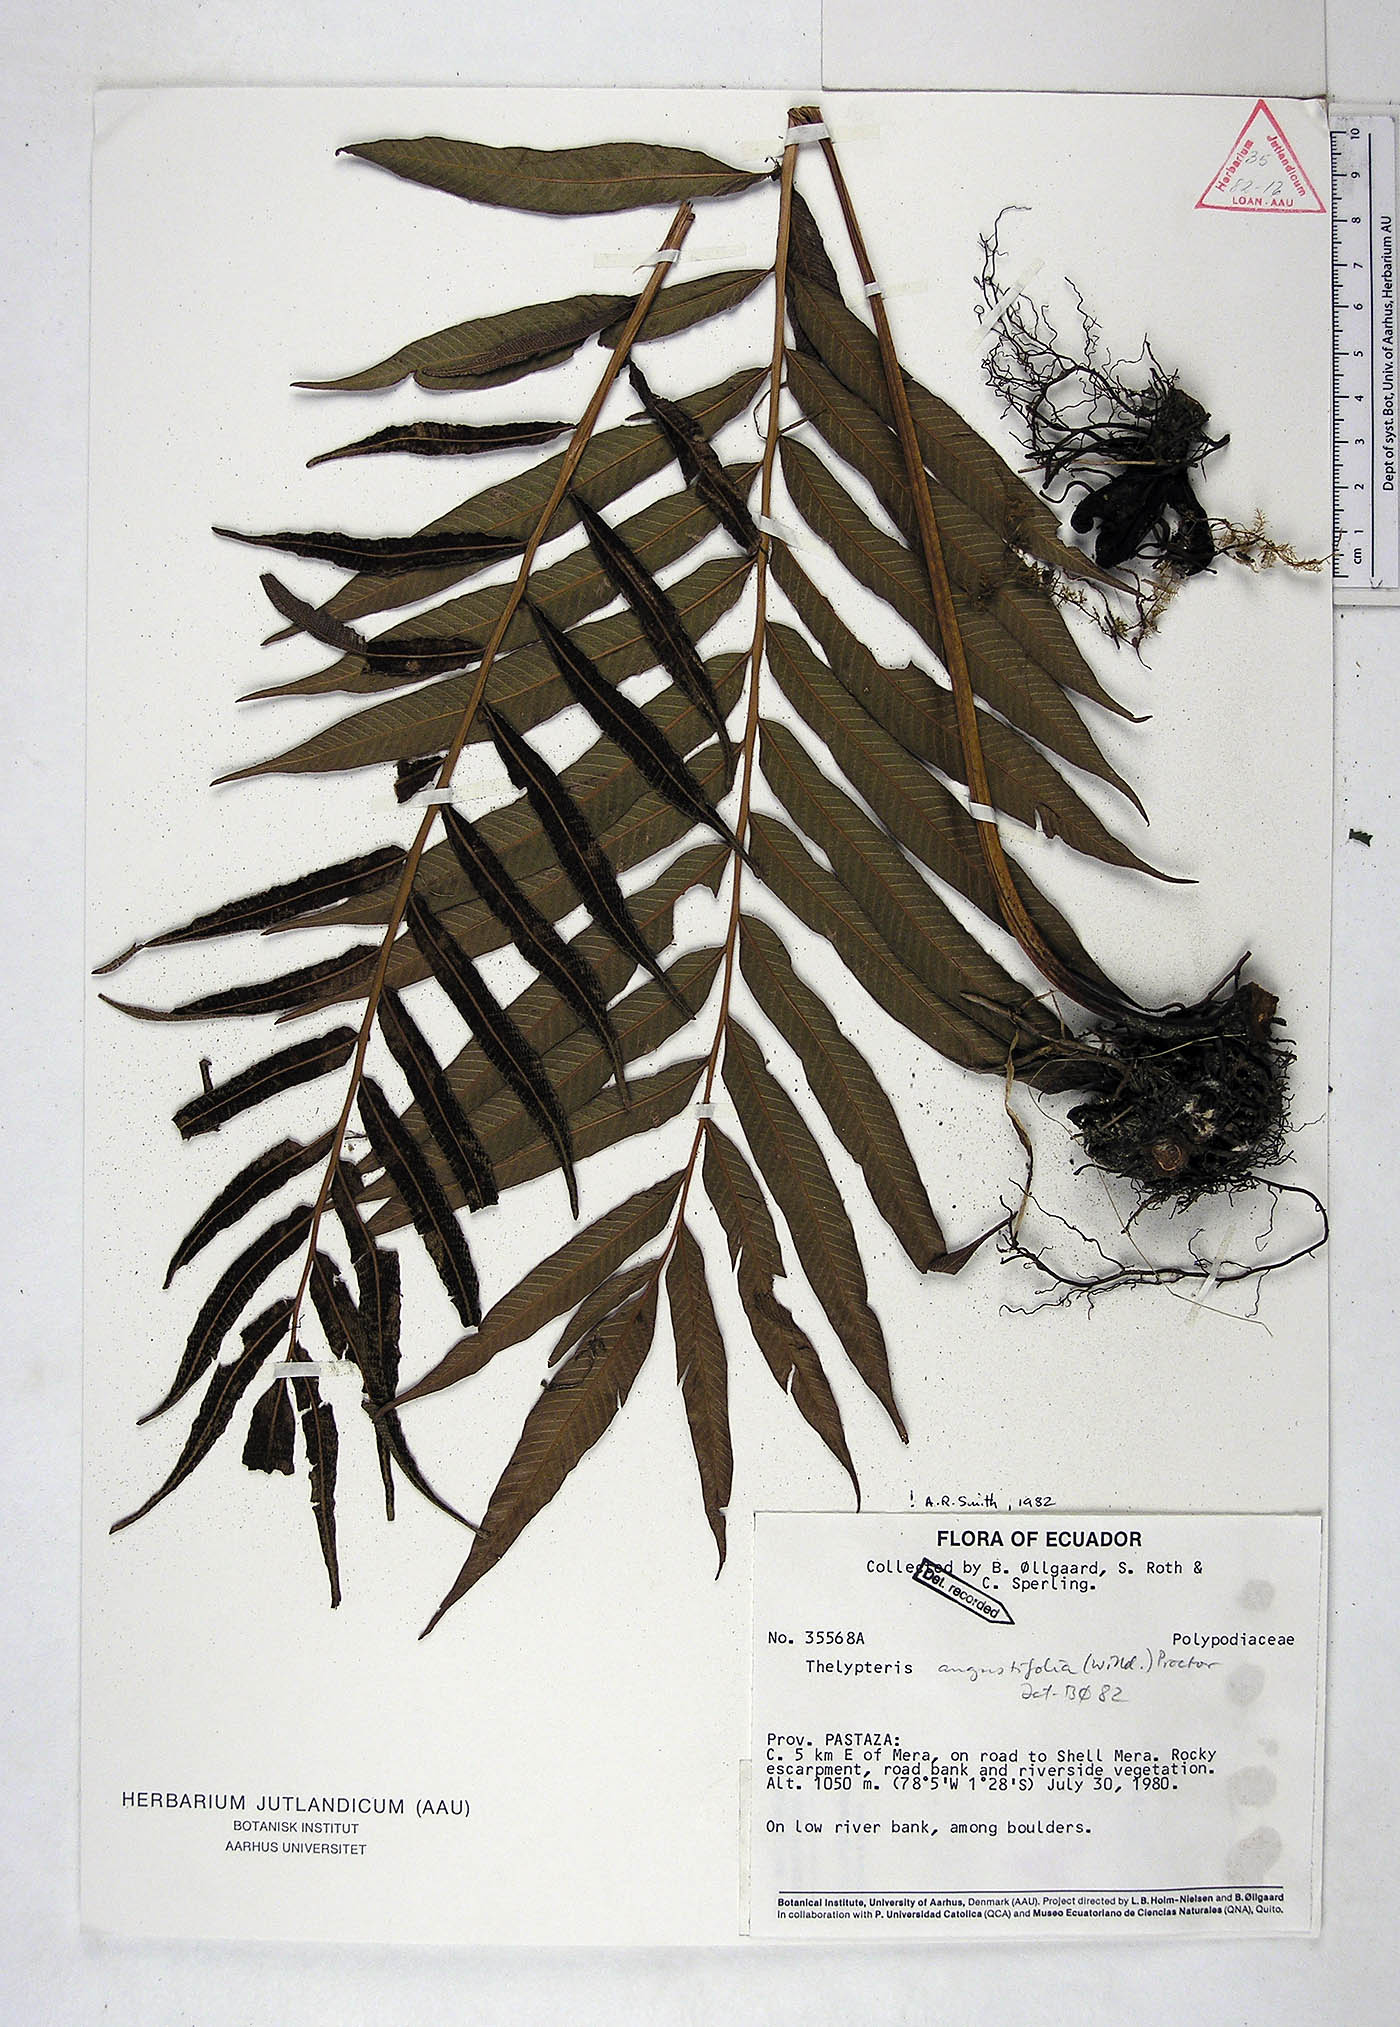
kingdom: Plantae
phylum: Tracheophyta
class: Polypodiopsida
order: Polypodiales
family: Thelypteridaceae
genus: Meniscium
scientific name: Meniscium angustifolium
